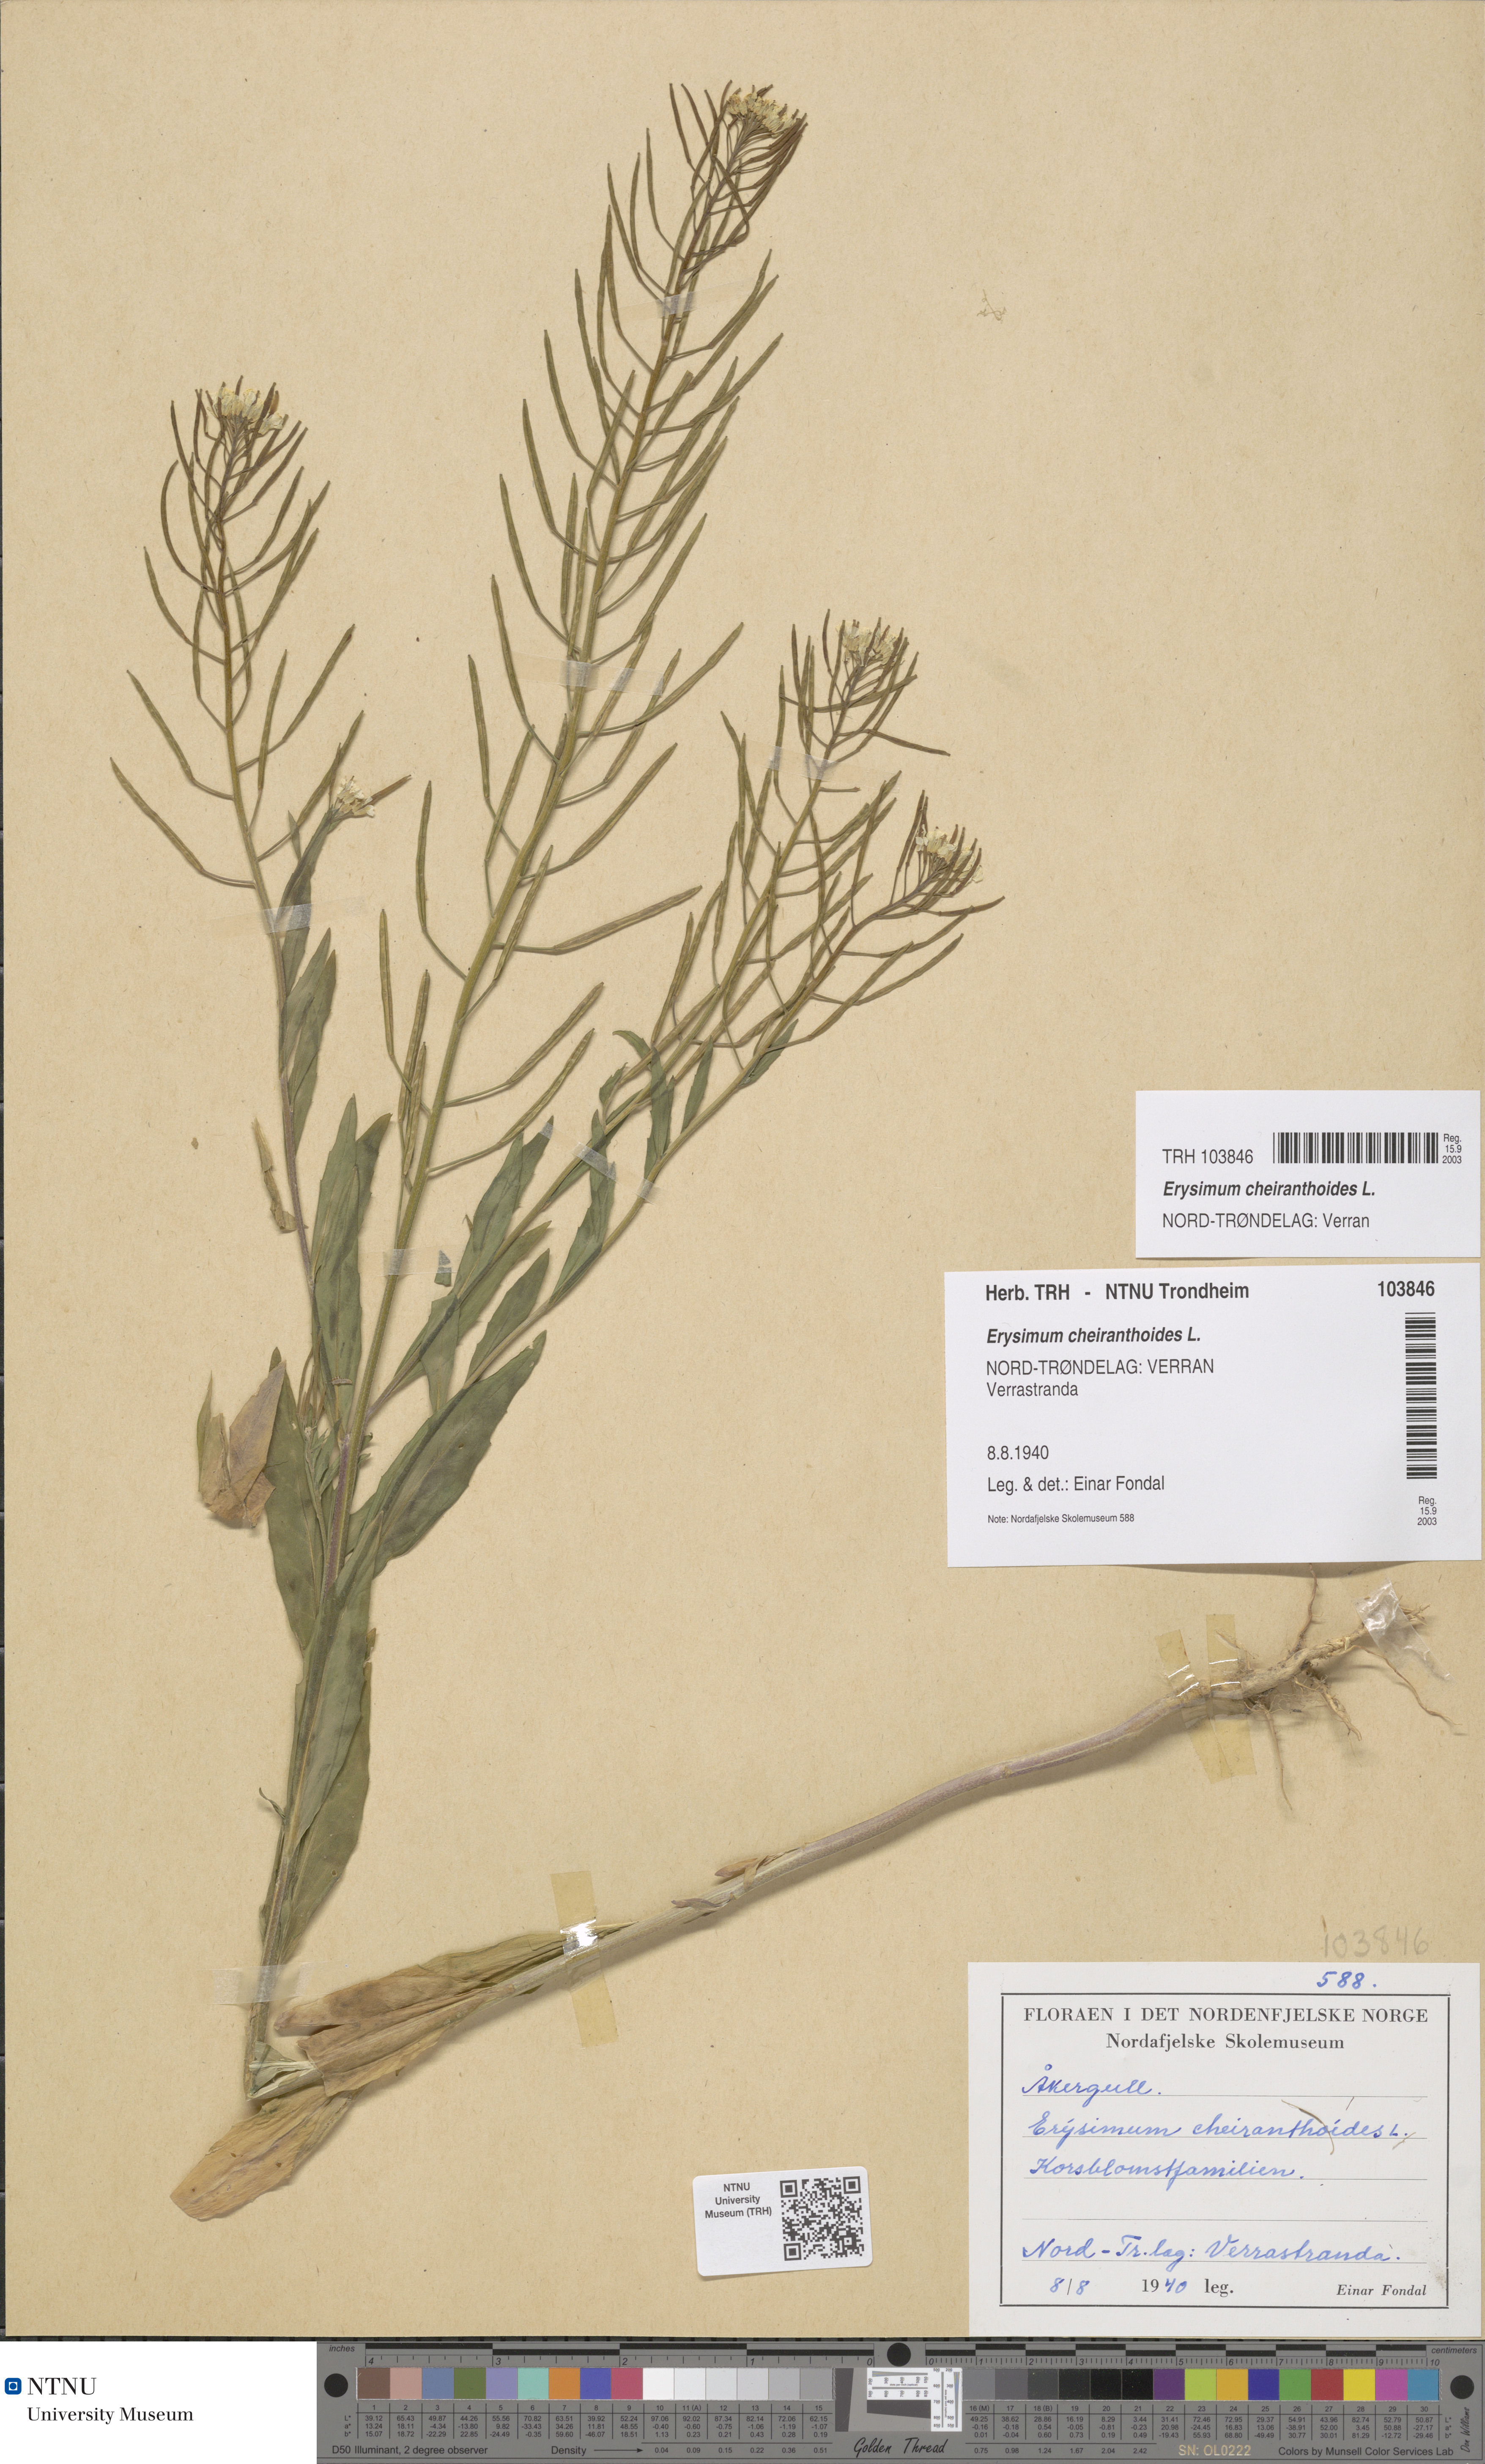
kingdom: Plantae
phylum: Tracheophyta
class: Magnoliopsida
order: Brassicales
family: Brassicaceae
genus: Erysimum
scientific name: Erysimum cheiranthoides
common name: Treacle mustard
